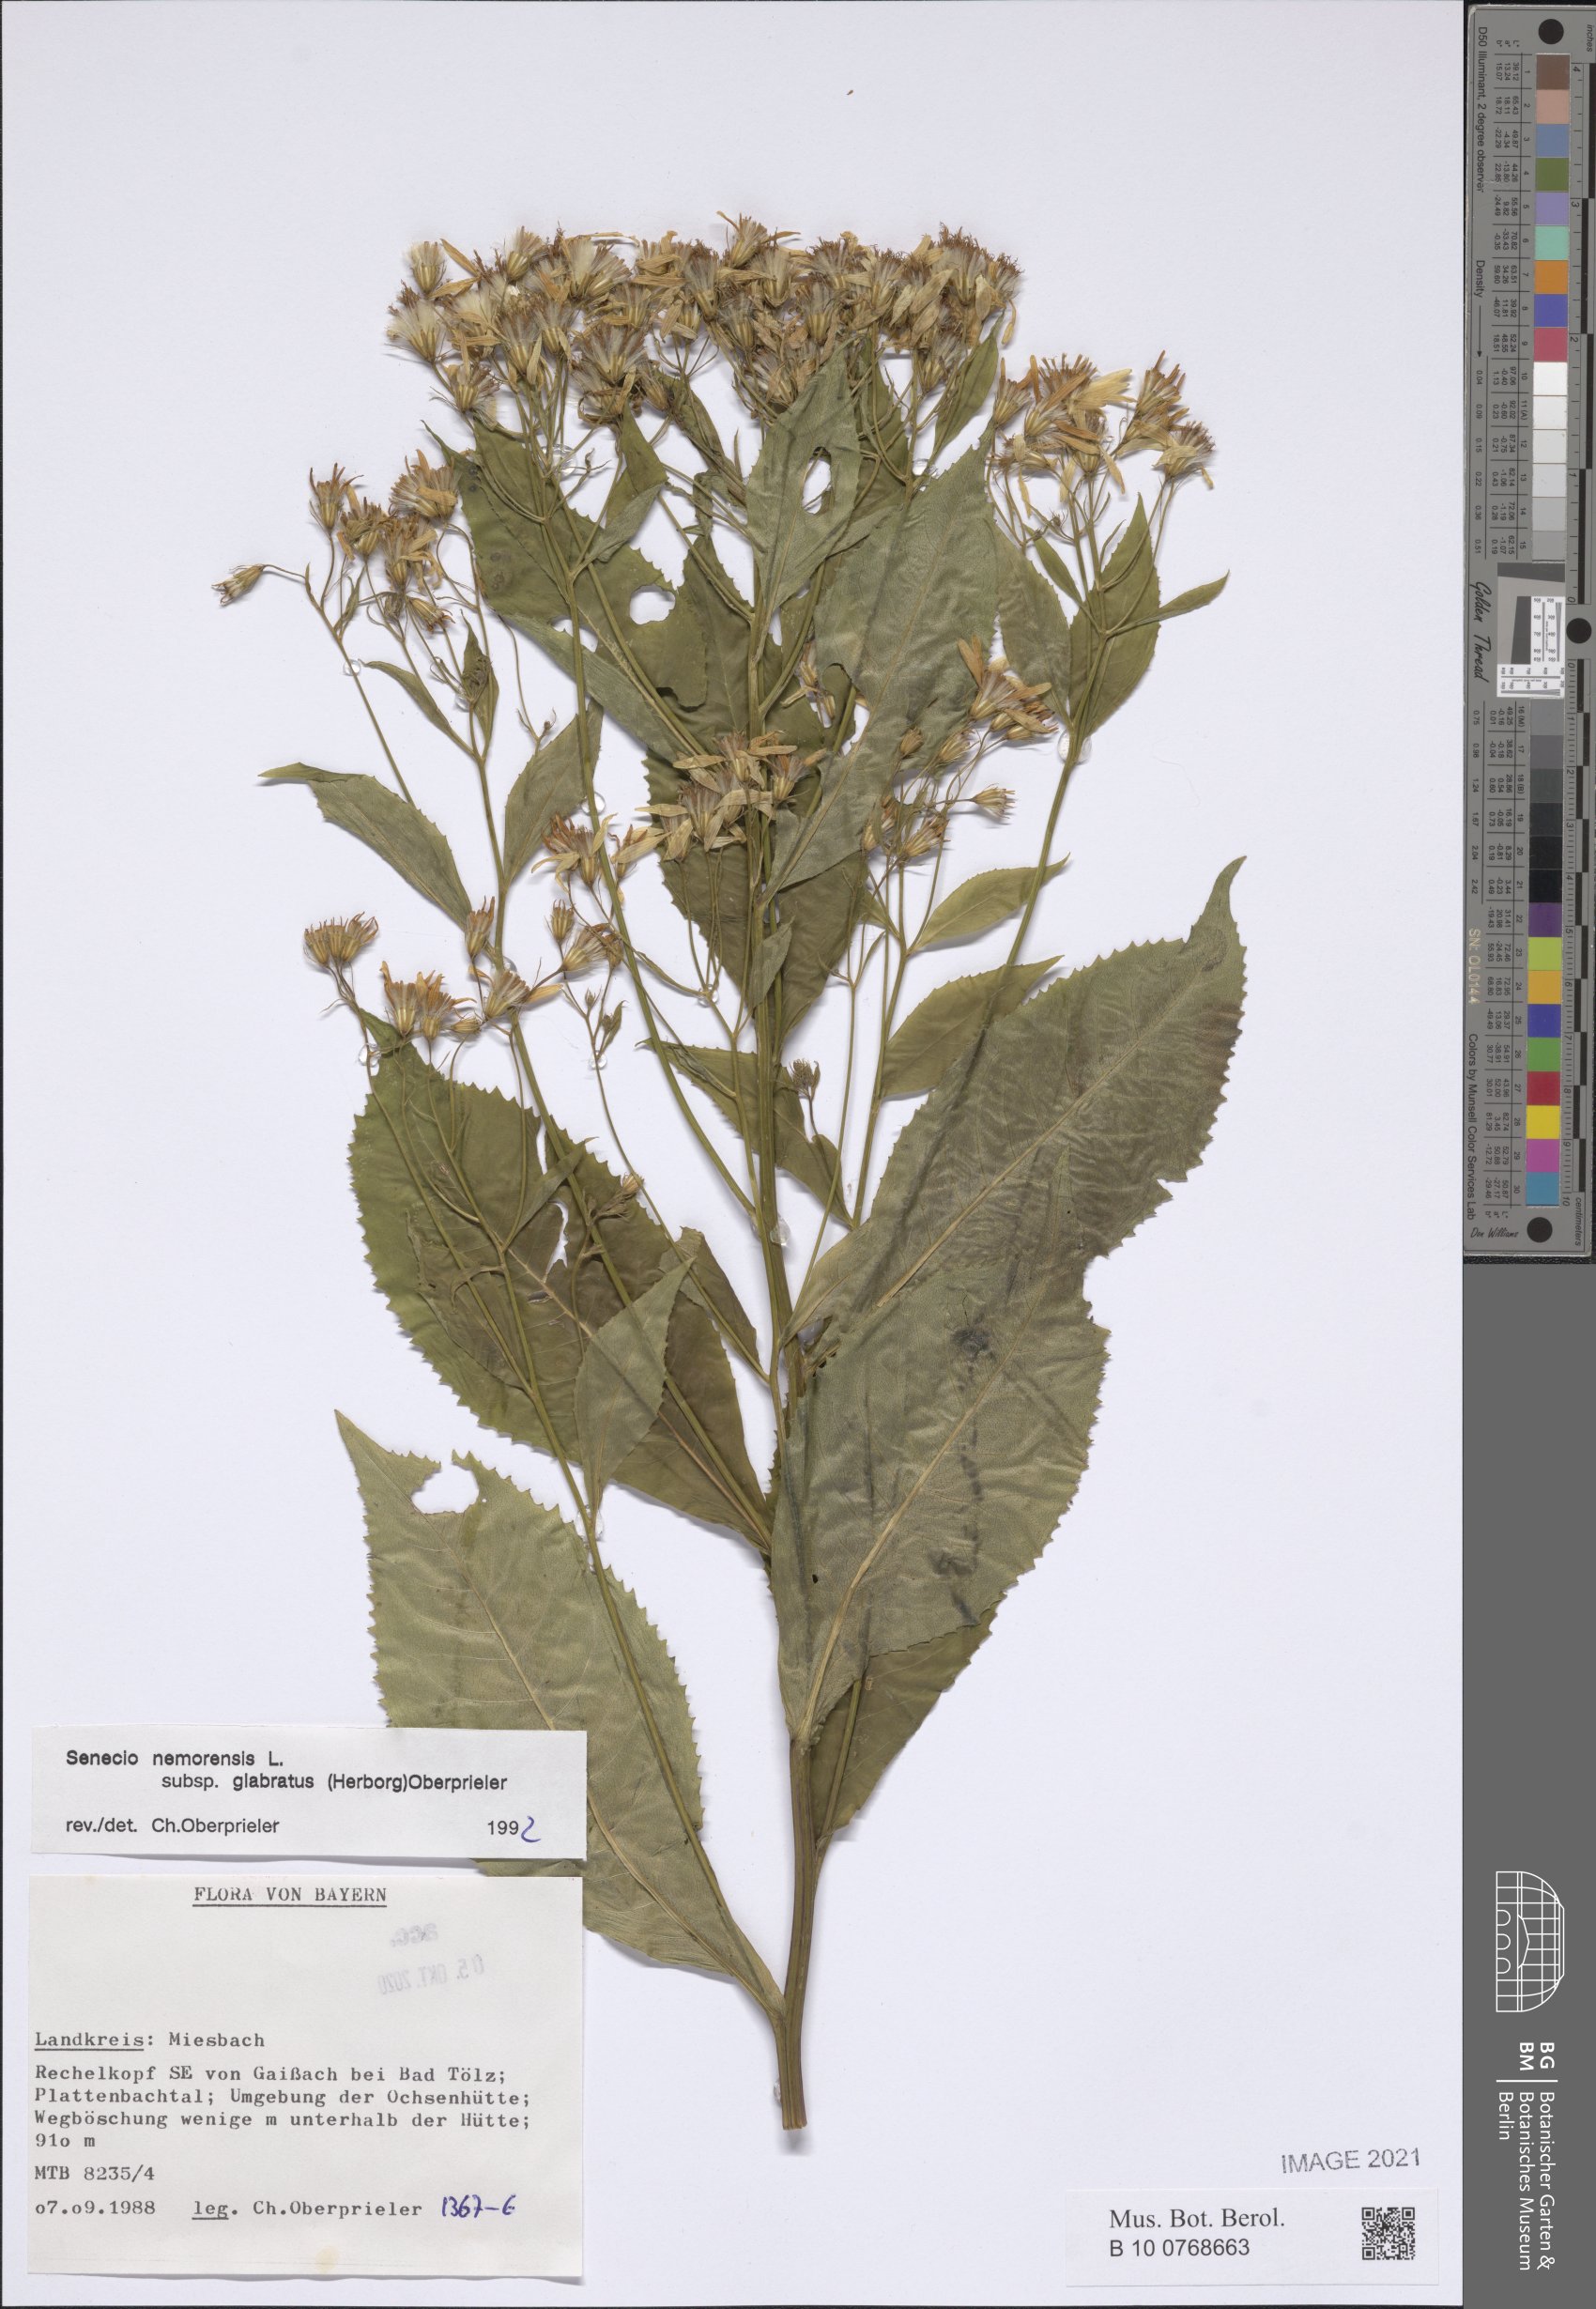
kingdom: Plantae
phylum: Tracheophyta
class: Magnoliopsida
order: Asterales
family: Asteraceae
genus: Senecio
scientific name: Senecio germanicus
